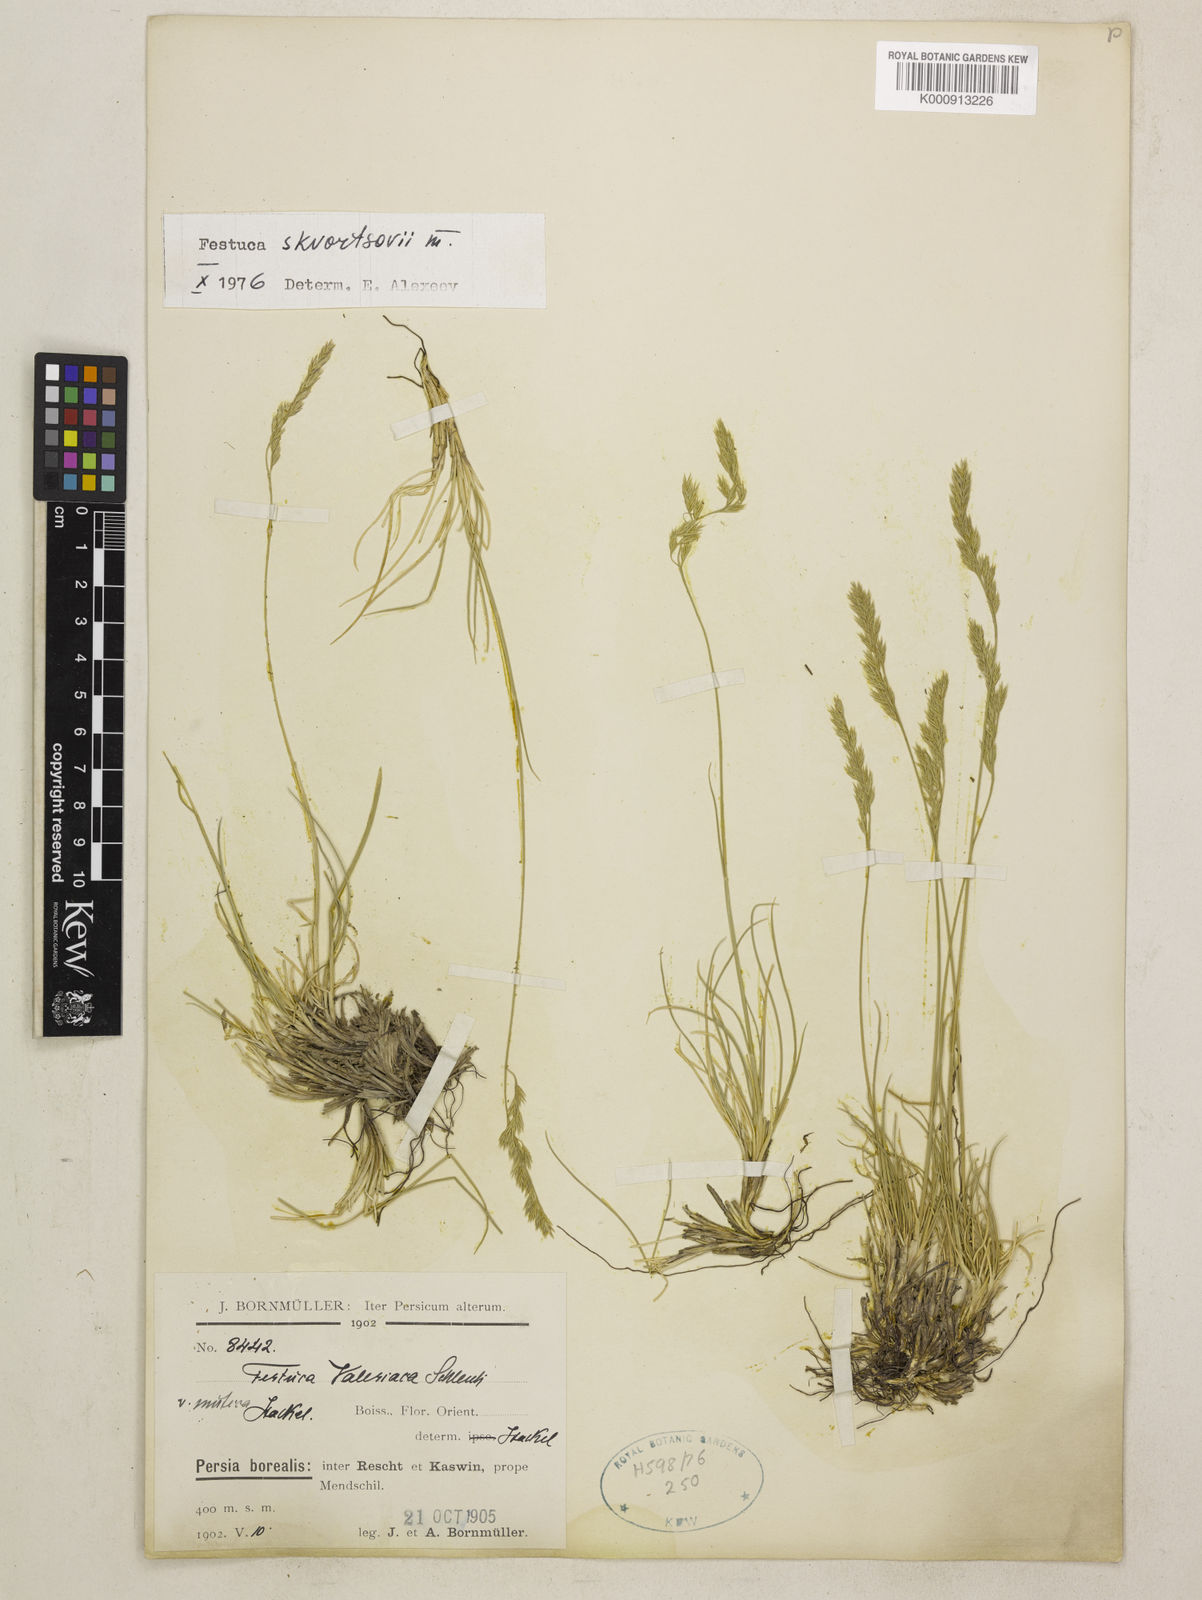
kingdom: Plantae
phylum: Tracheophyta
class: Liliopsida
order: Poales
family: Poaceae
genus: Festuca
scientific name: Festuca skvortsovii
